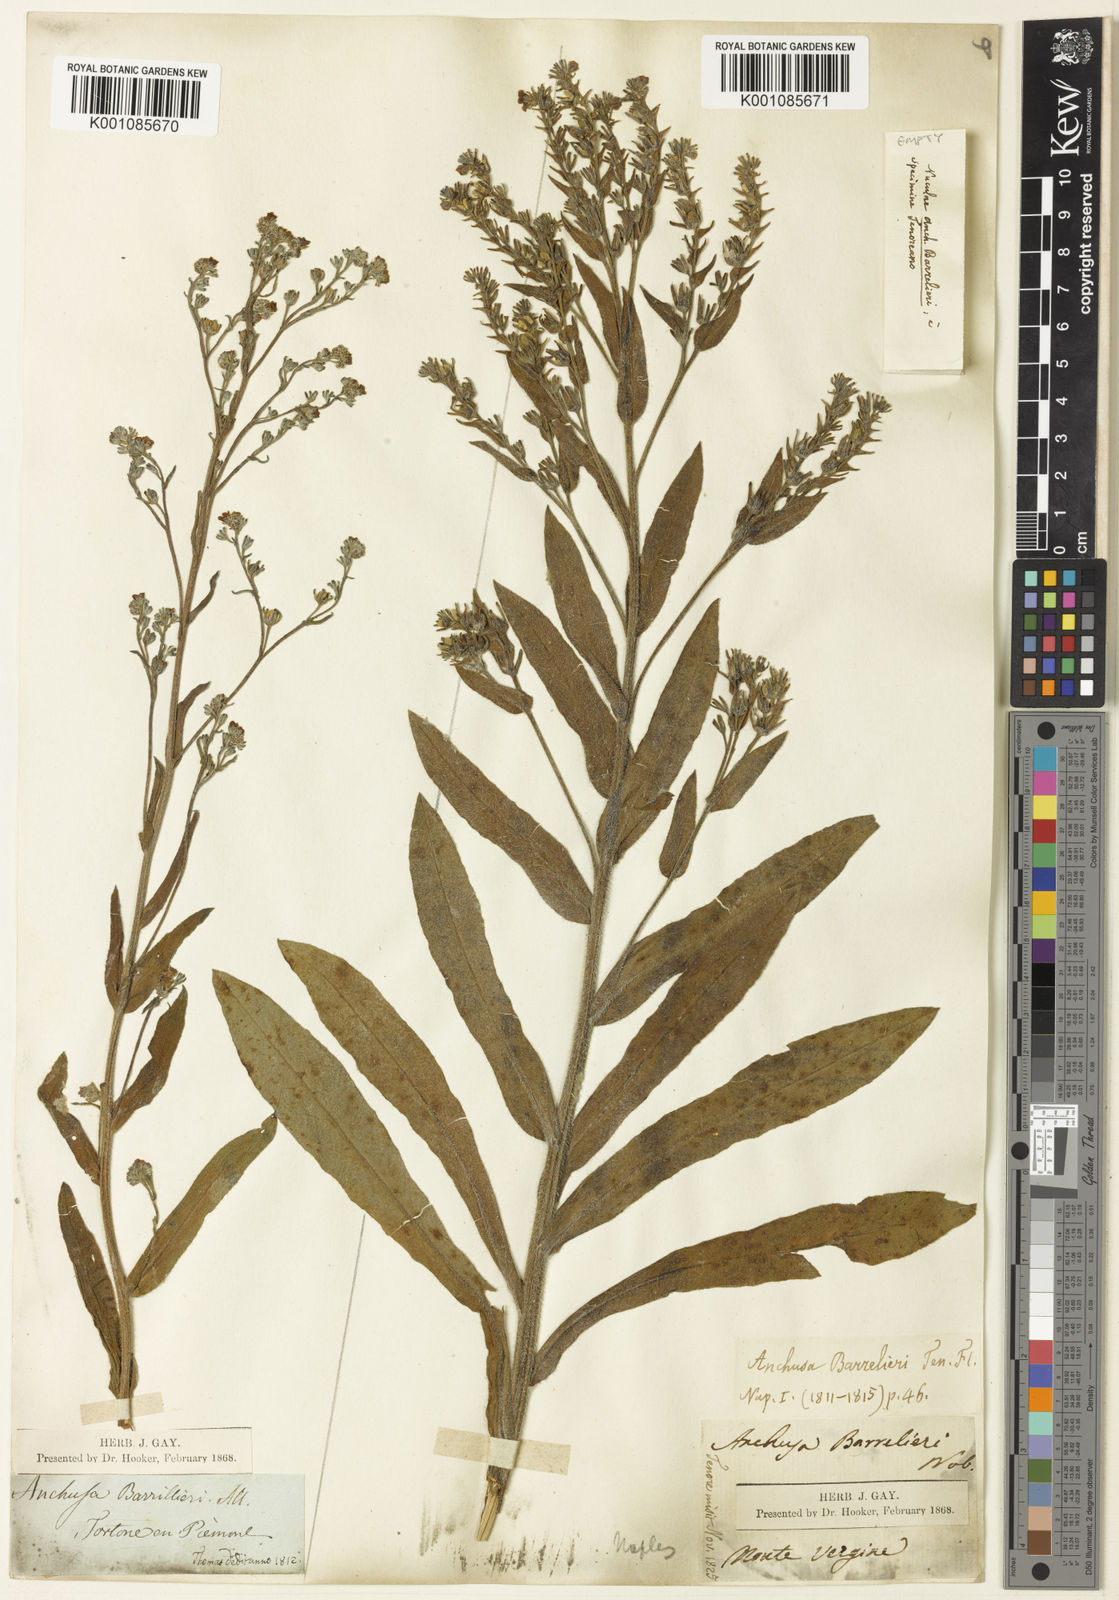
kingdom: Plantae
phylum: Tracheophyta
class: Magnoliopsida
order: Boraginales
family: Boraginaceae
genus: Cynoglottis
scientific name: Cynoglottis barrelieri
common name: False alkanet
